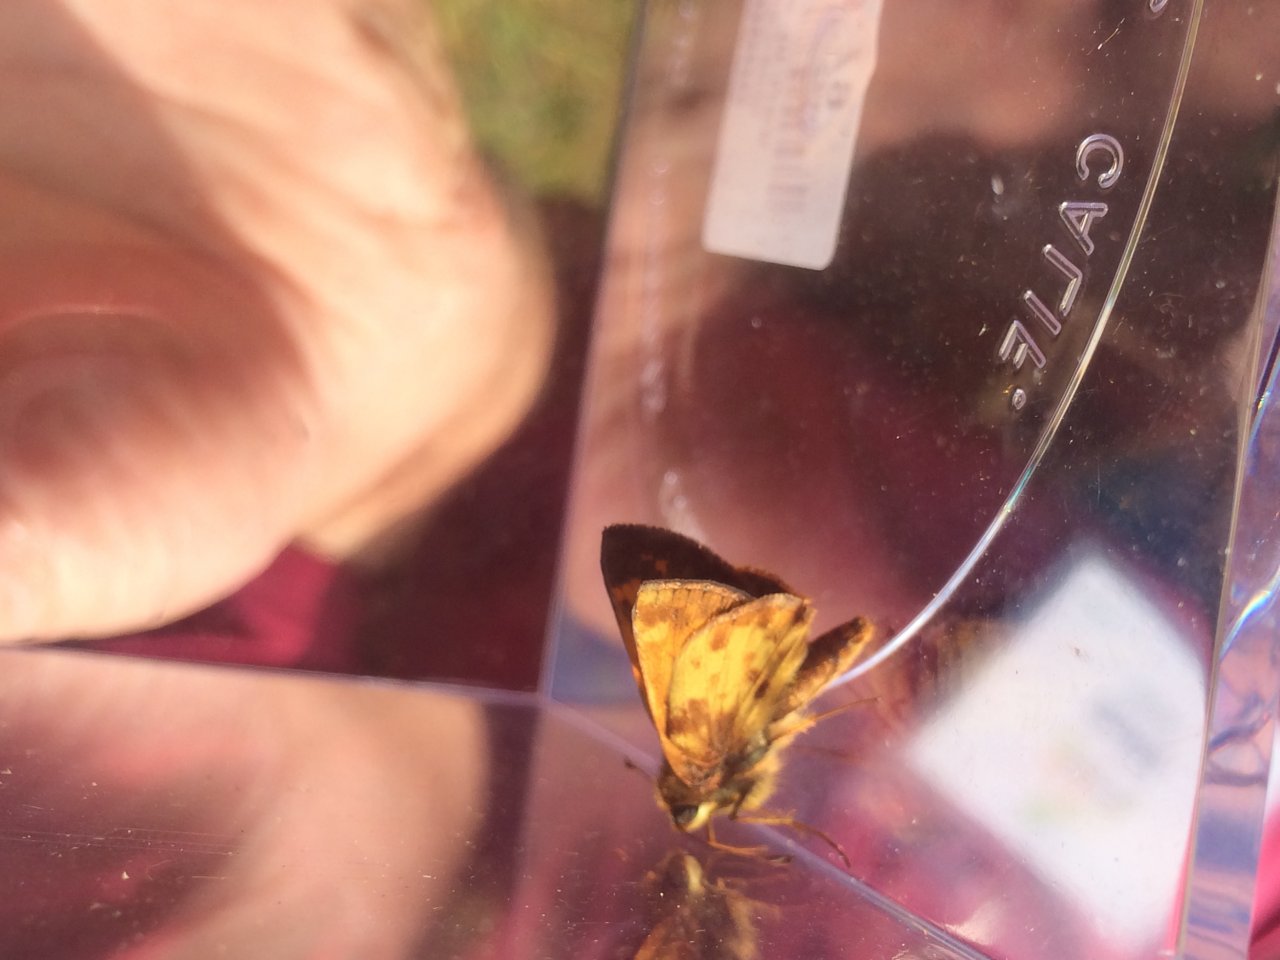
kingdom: Animalia
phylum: Arthropoda
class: Insecta
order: Lepidoptera
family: Hesperiidae
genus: Lon
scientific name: Lon zabulon
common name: Zabulon Skipper
